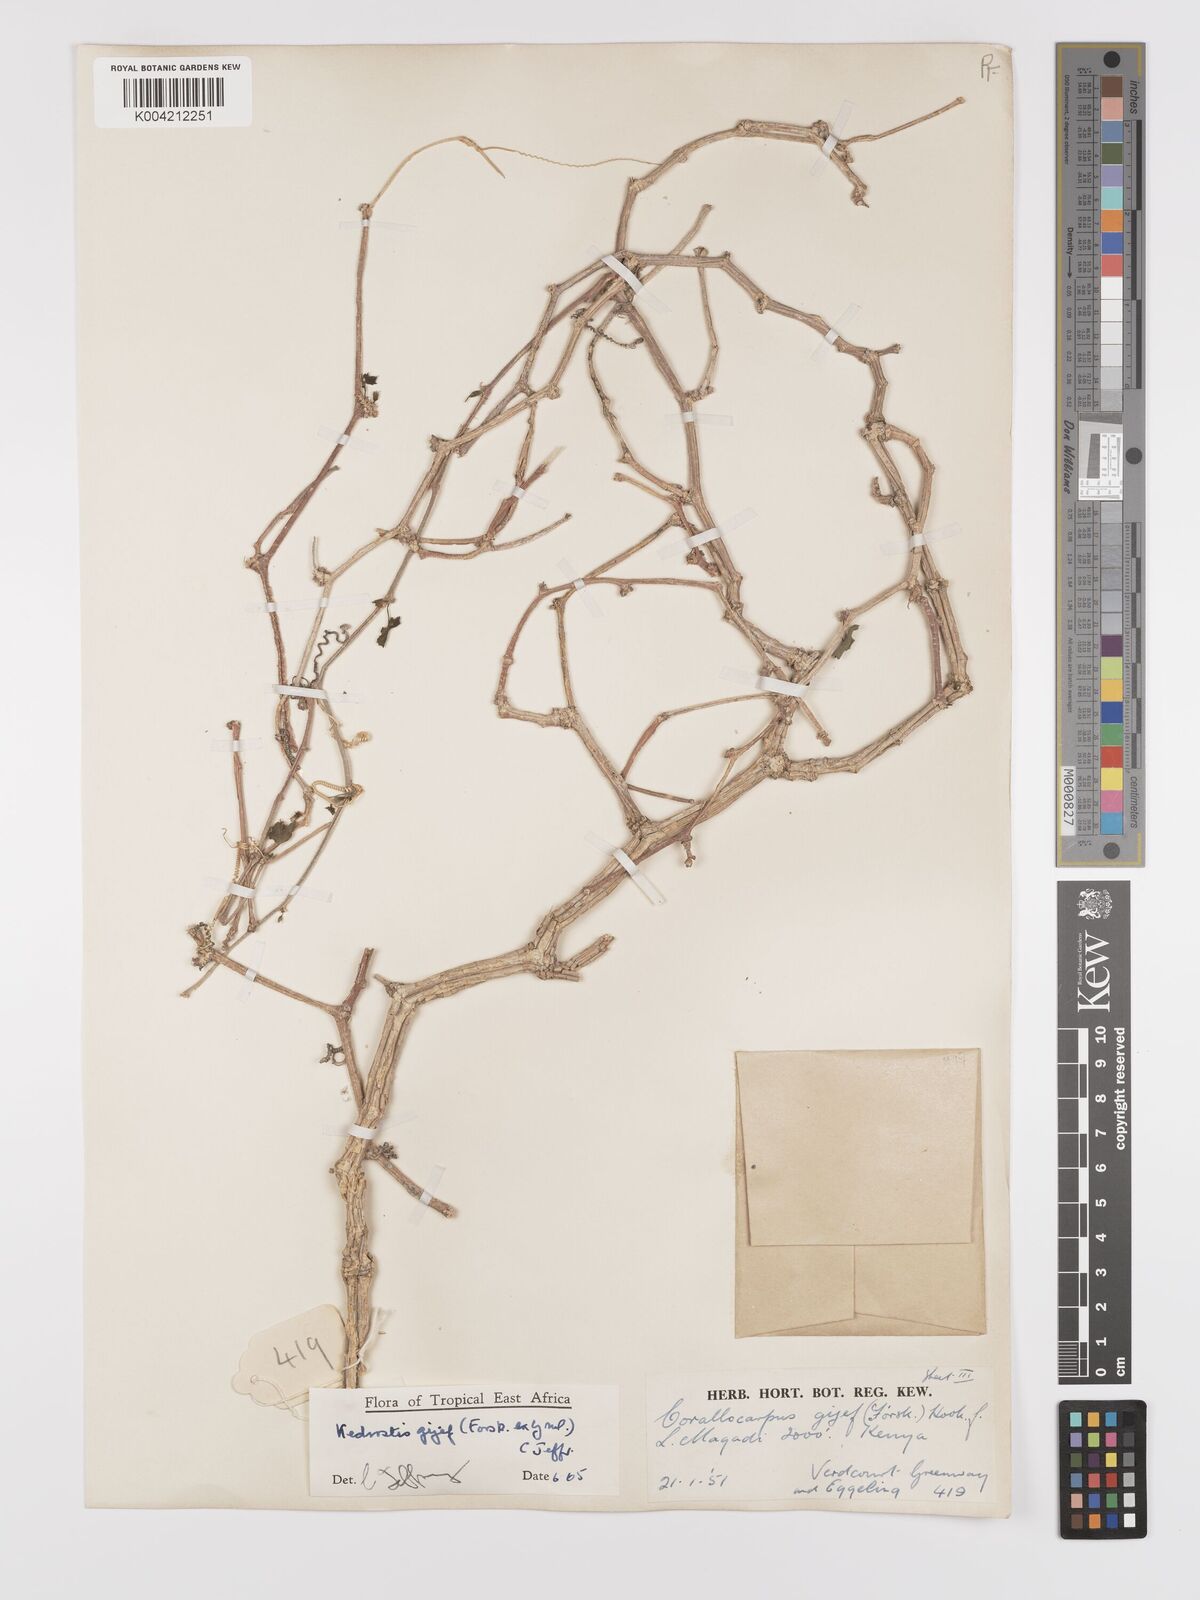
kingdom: Plantae
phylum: Tracheophyta
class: Magnoliopsida
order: Cucurbitales
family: Cucurbitaceae
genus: Kedrostis
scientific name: Kedrostis gijef
